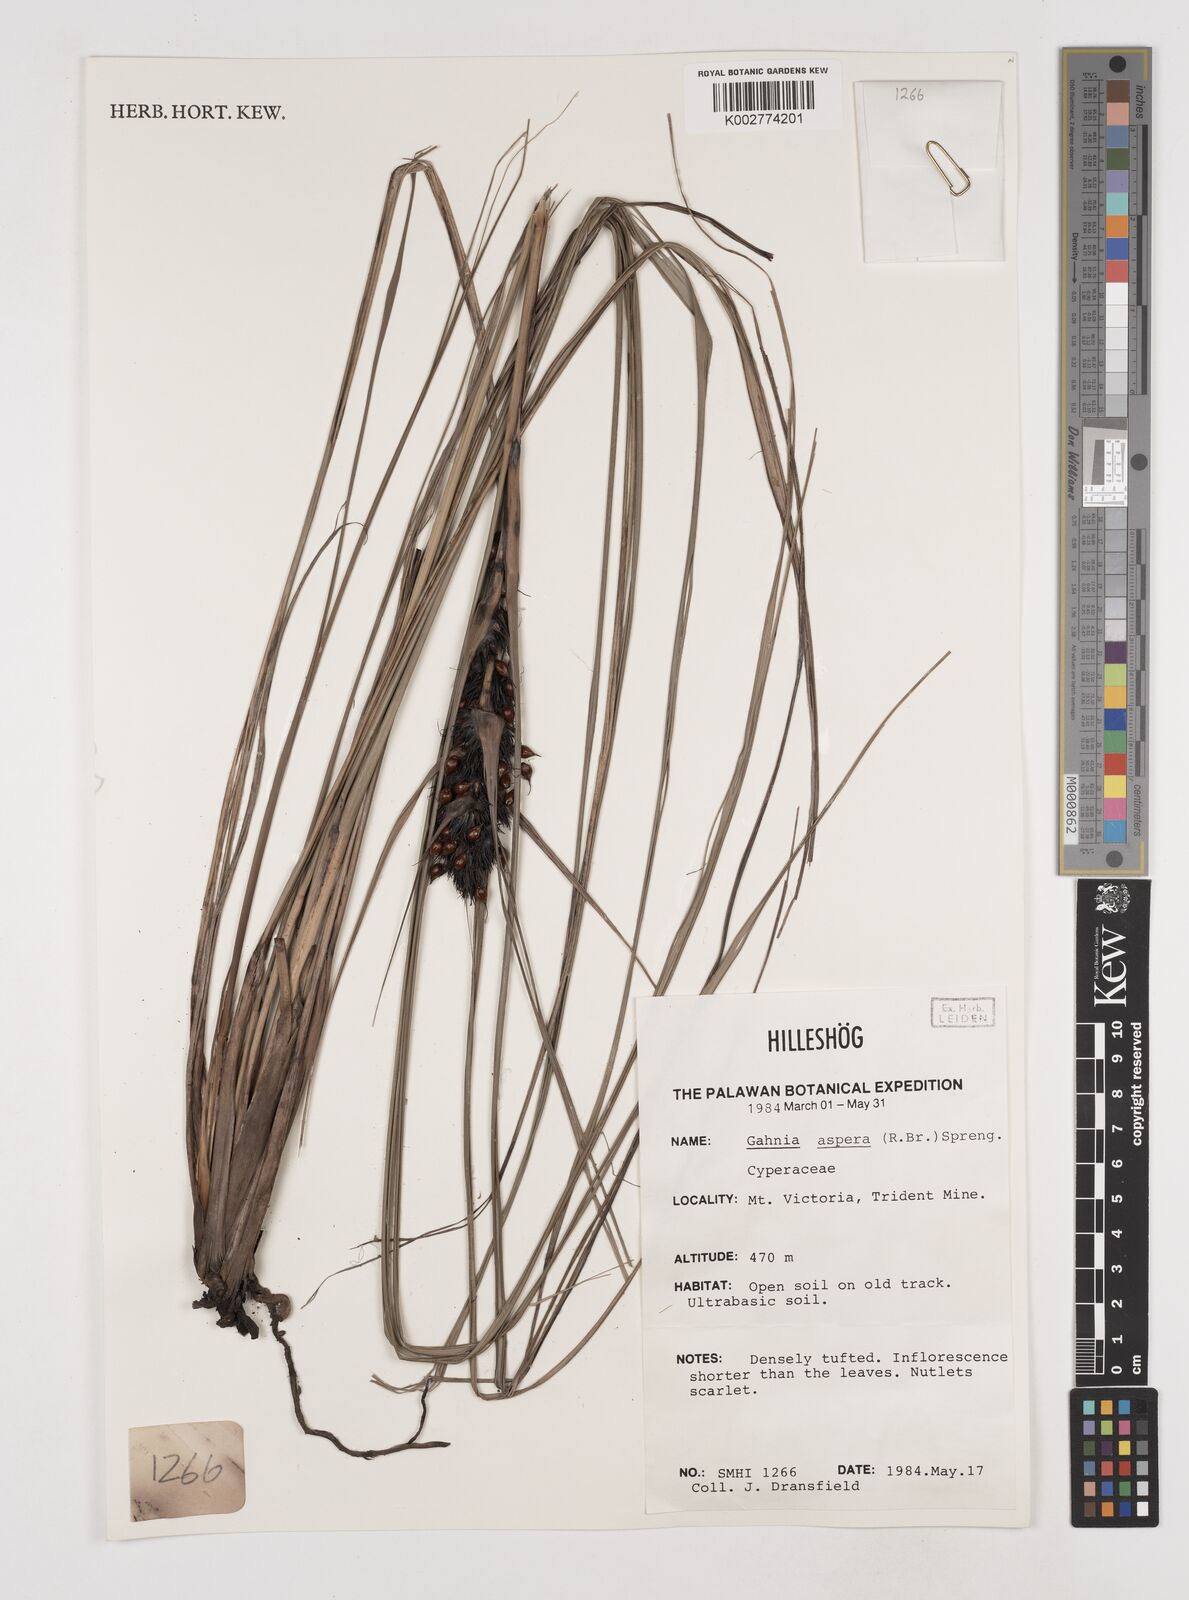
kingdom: Plantae
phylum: Tracheophyta
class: Liliopsida
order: Poales
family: Cyperaceae
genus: Gahnia
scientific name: Gahnia aspera
